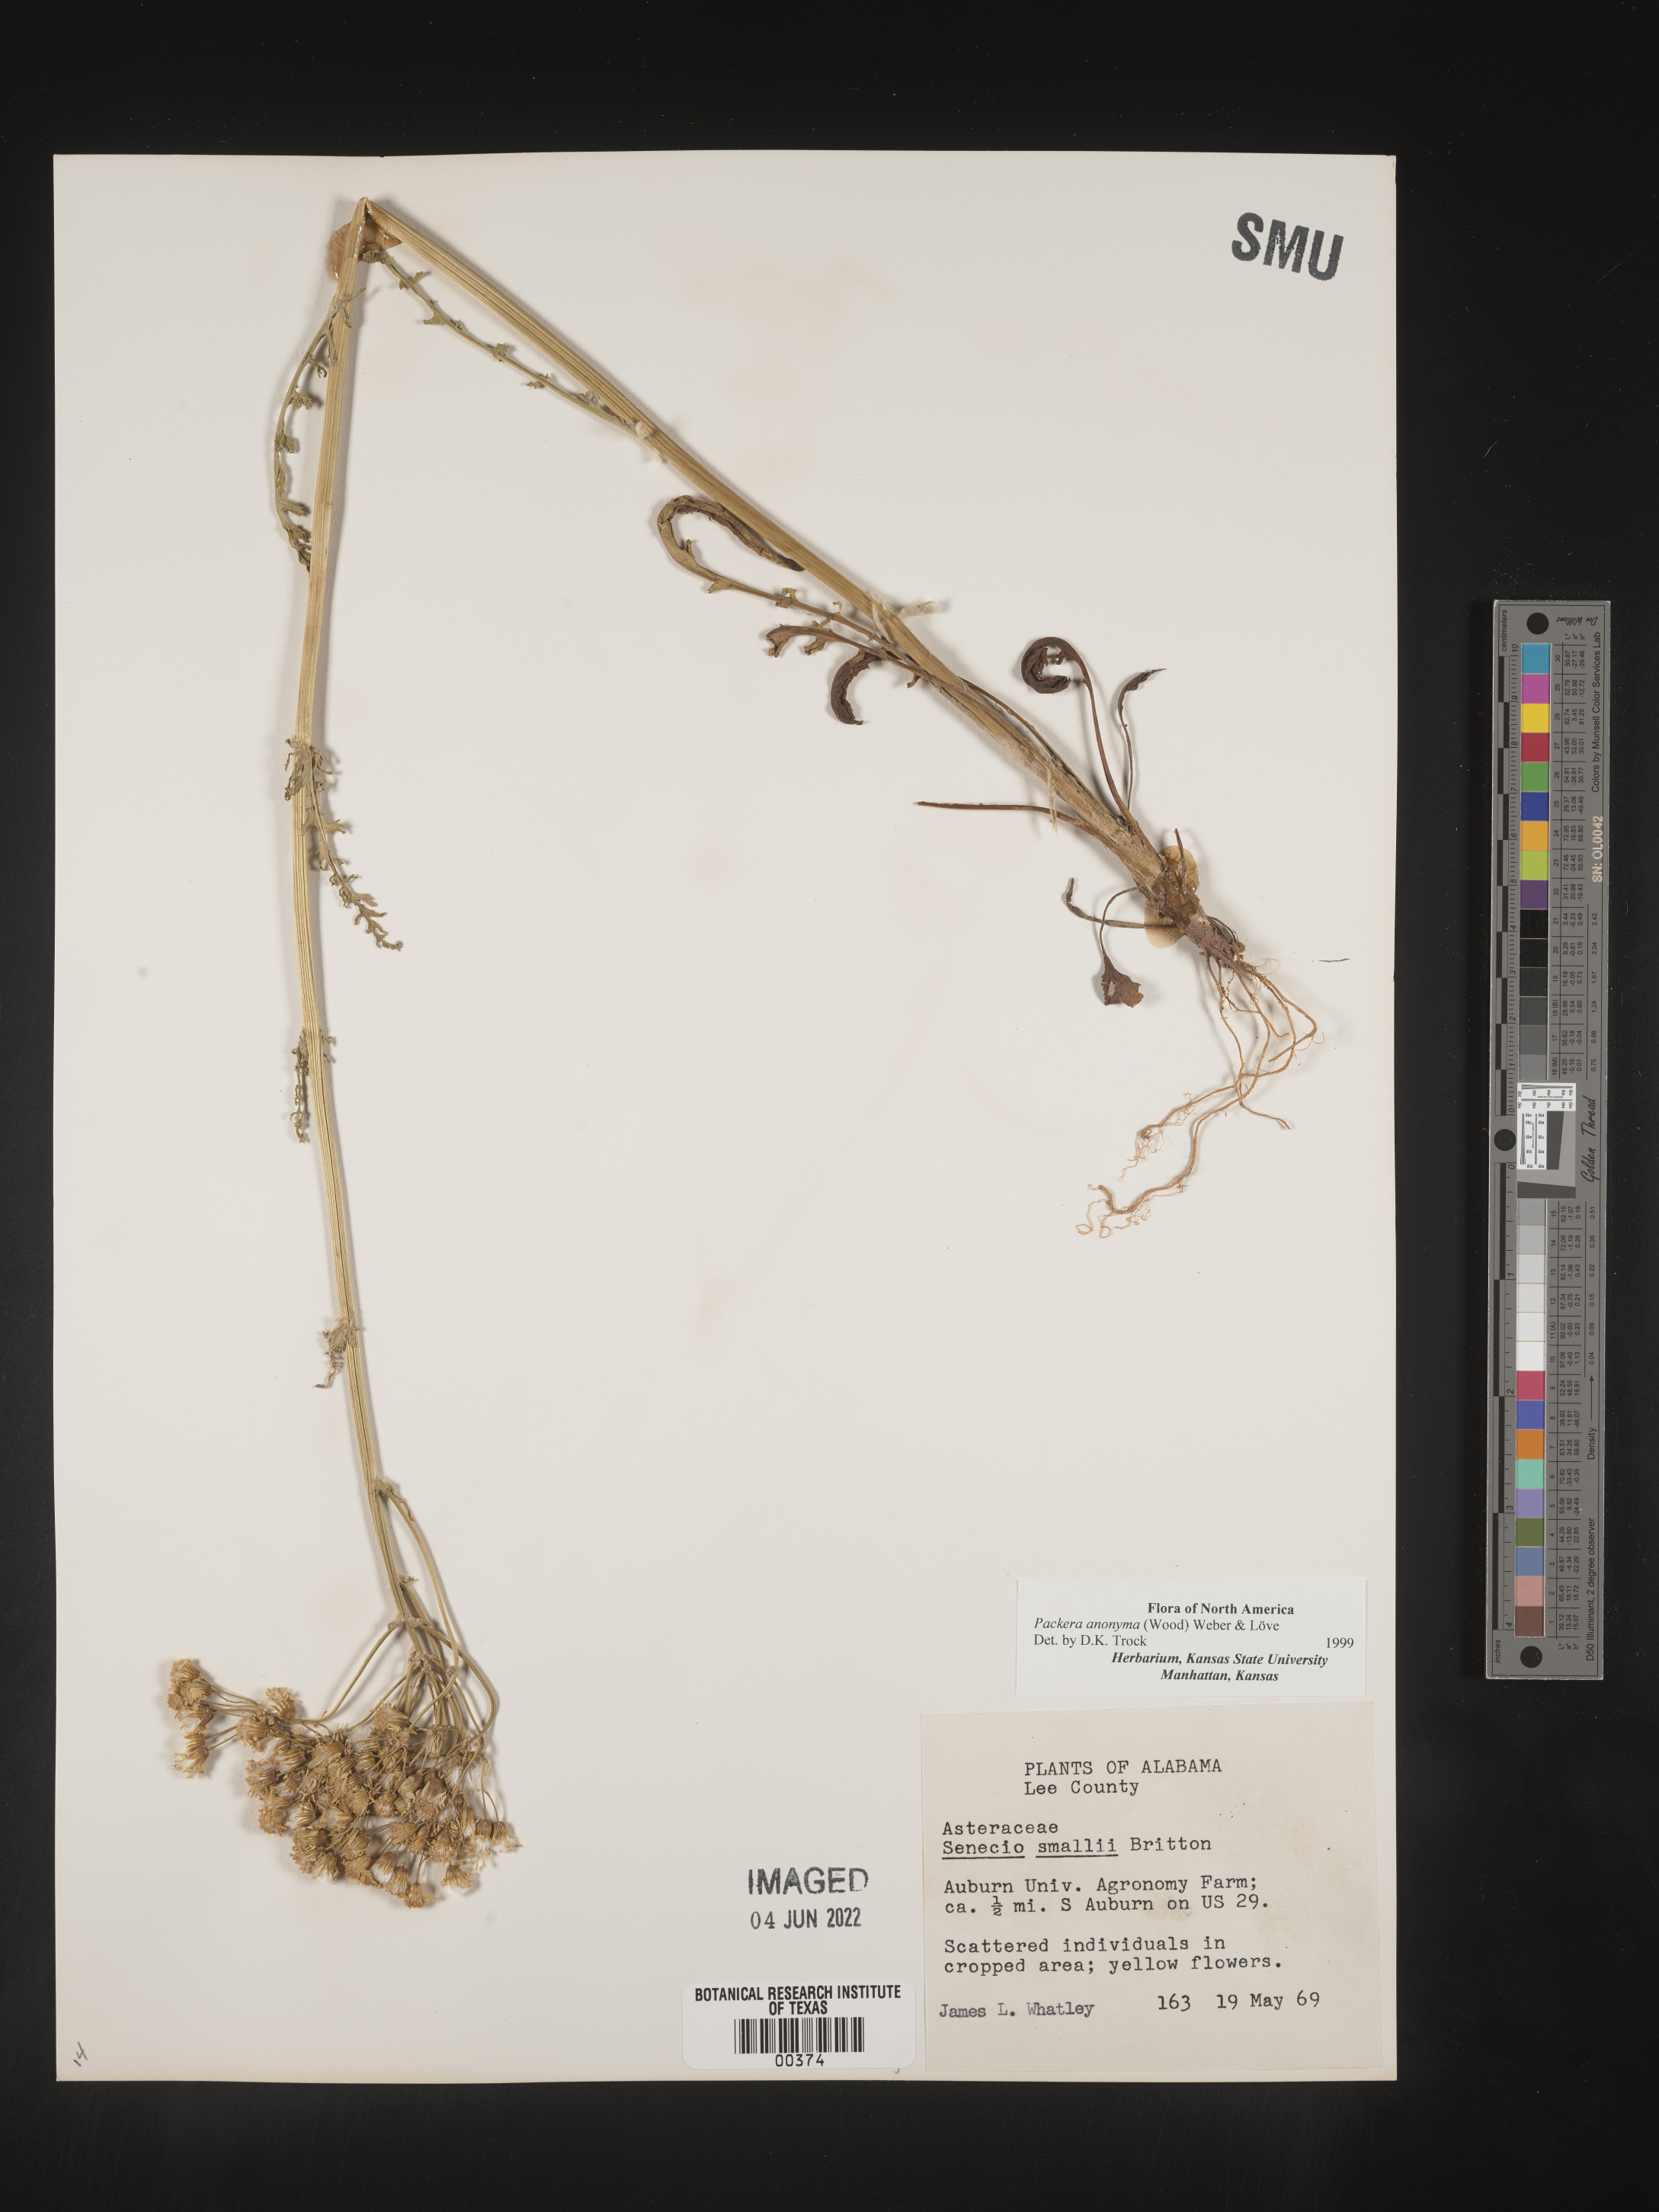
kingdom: Plantae
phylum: Tracheophyta
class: Magnoliopsida
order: Asterales
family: Asteraceae
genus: Packera
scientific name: Packera anonyma
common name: Small ragwort
